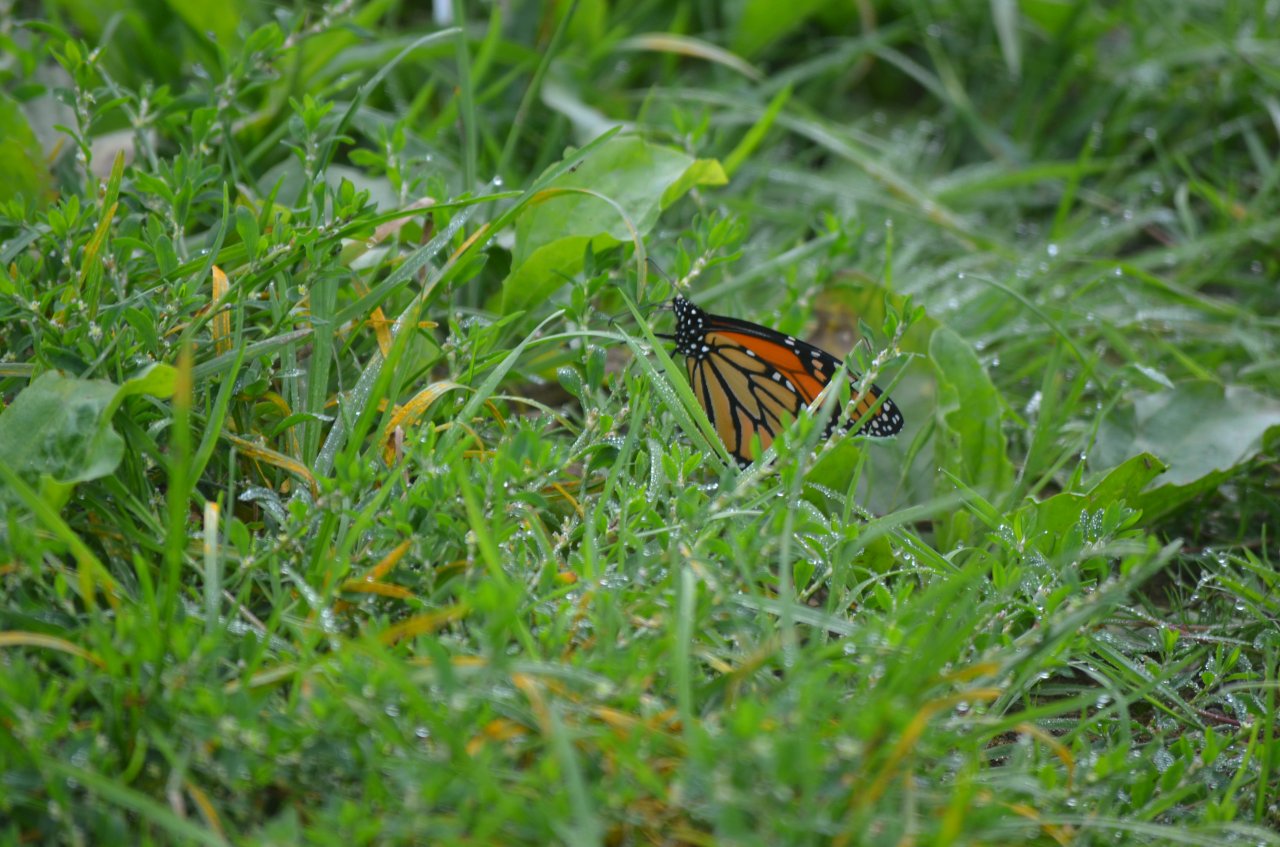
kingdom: Animalia
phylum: Arthropoda
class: Insecta
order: Lepidoptera
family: Nymphalidae
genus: Danaus
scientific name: Danaus plexippus
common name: Monarch
